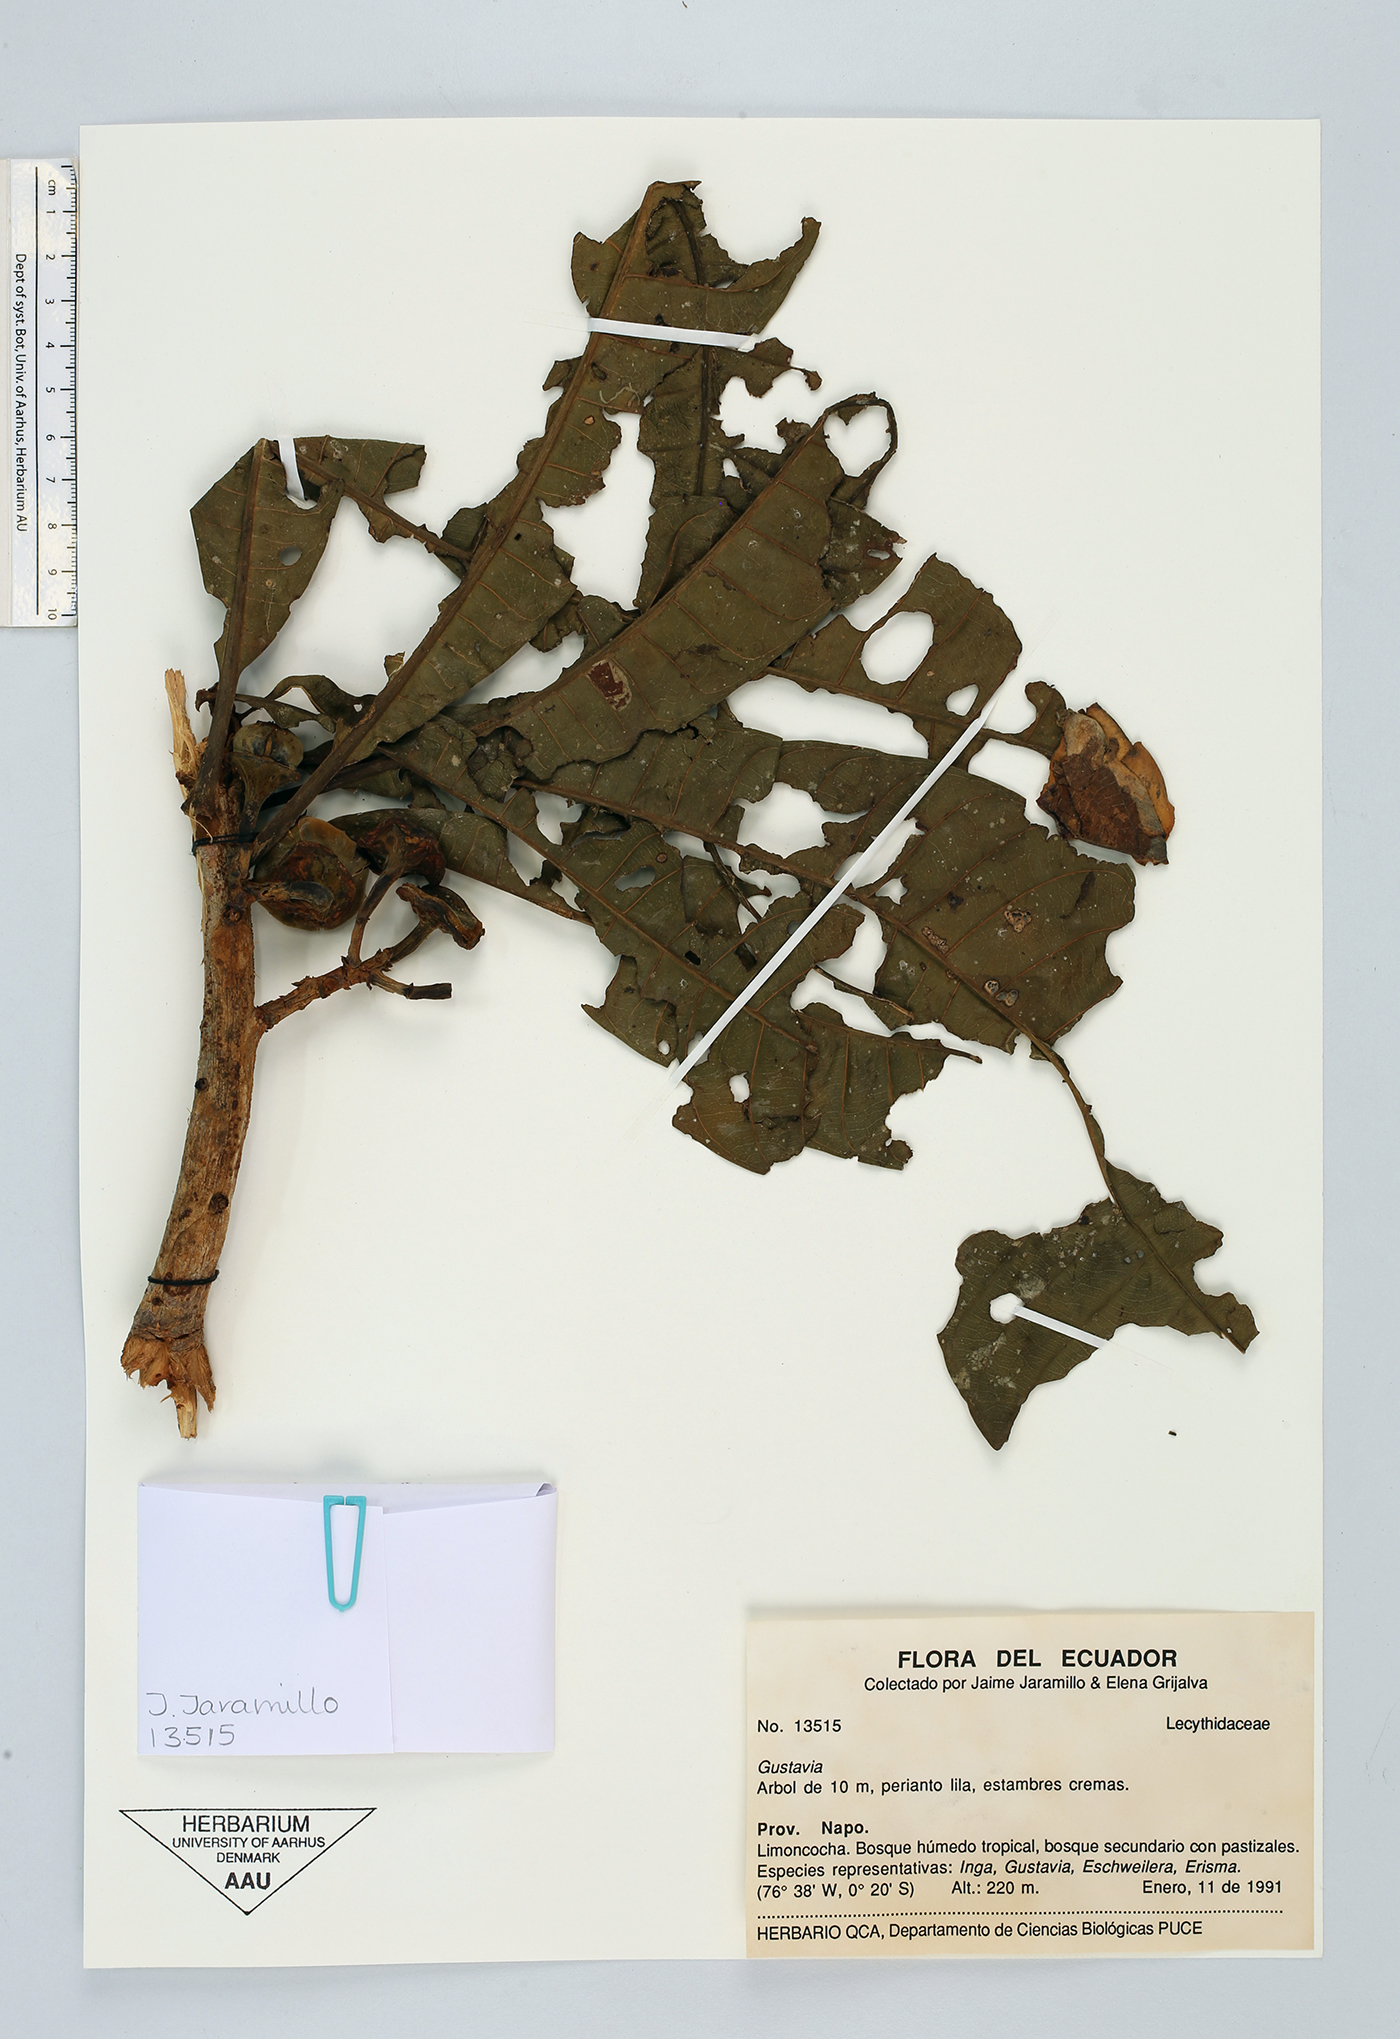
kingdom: Plantae
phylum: Tracheophyta
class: Magnoliopsida
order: Ericales
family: Lecythidaceae
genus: Gustavia
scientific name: Gustavia
